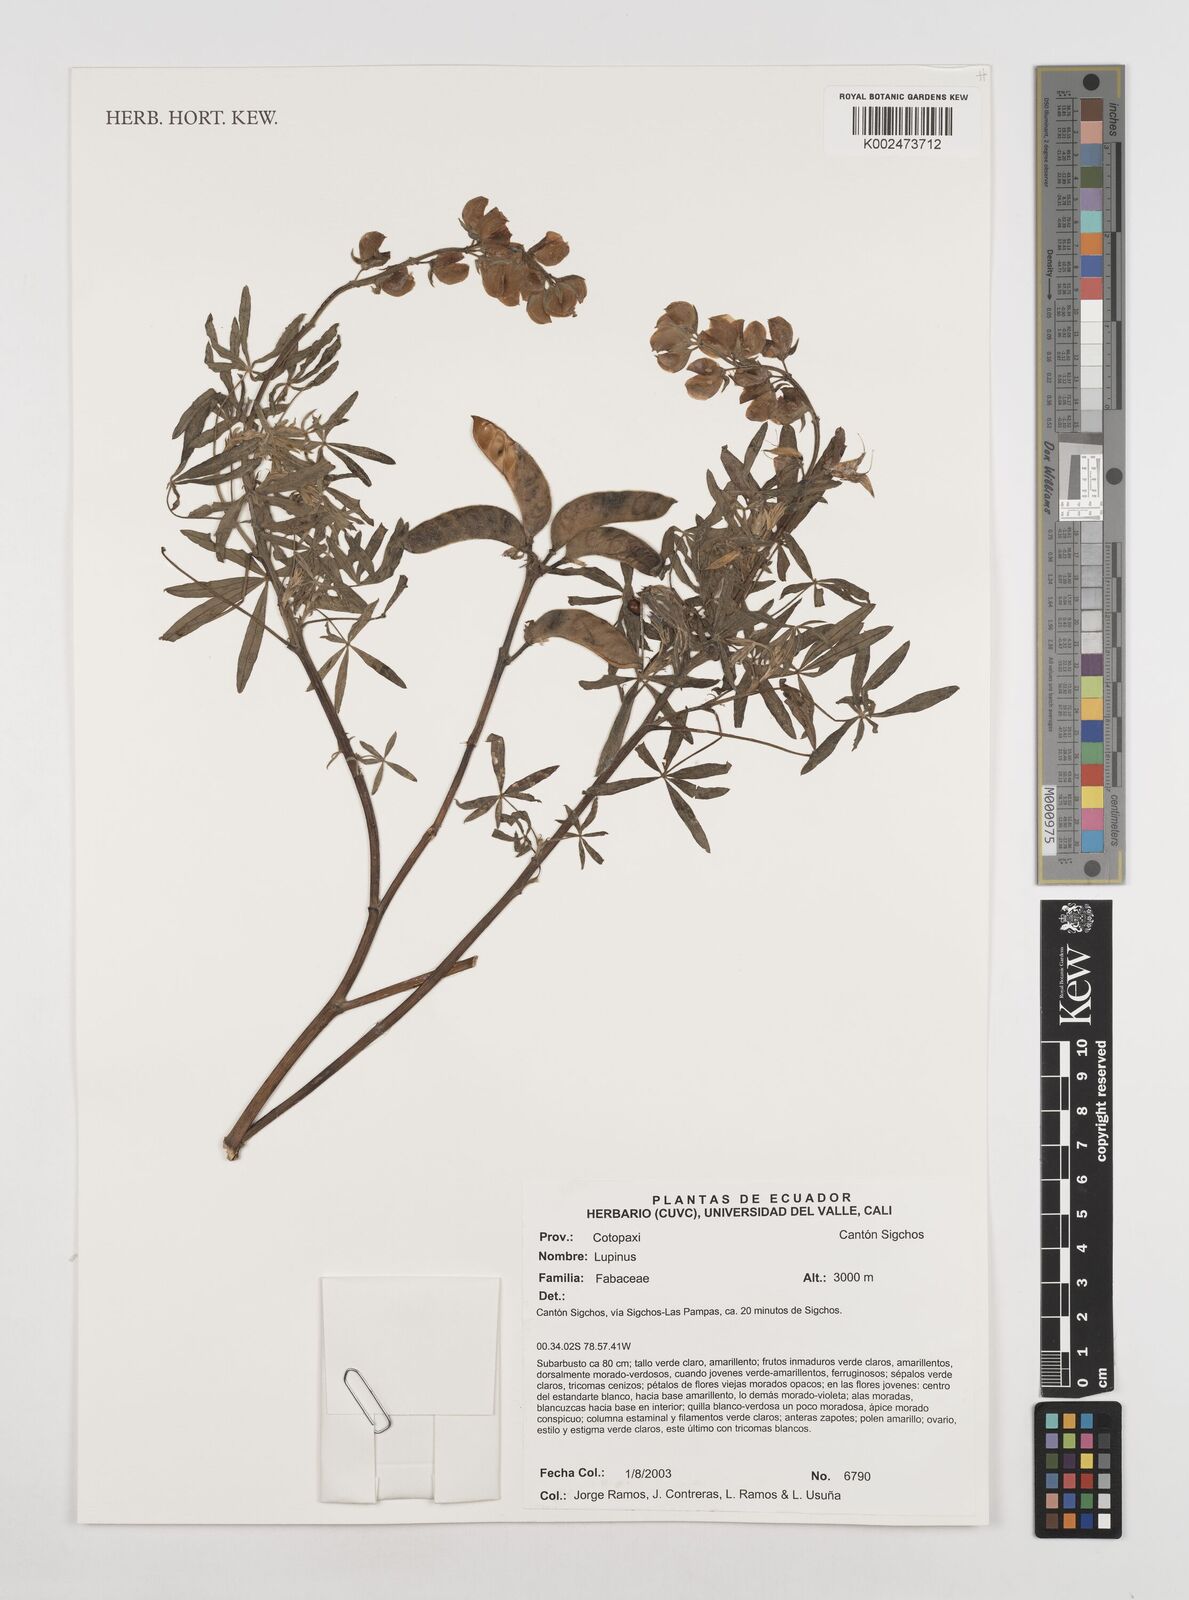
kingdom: Plantae
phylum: Tracheophyta
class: Magnoliopsida
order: Fabales
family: Fabaceae
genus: Lupinus
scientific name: Lupinus
